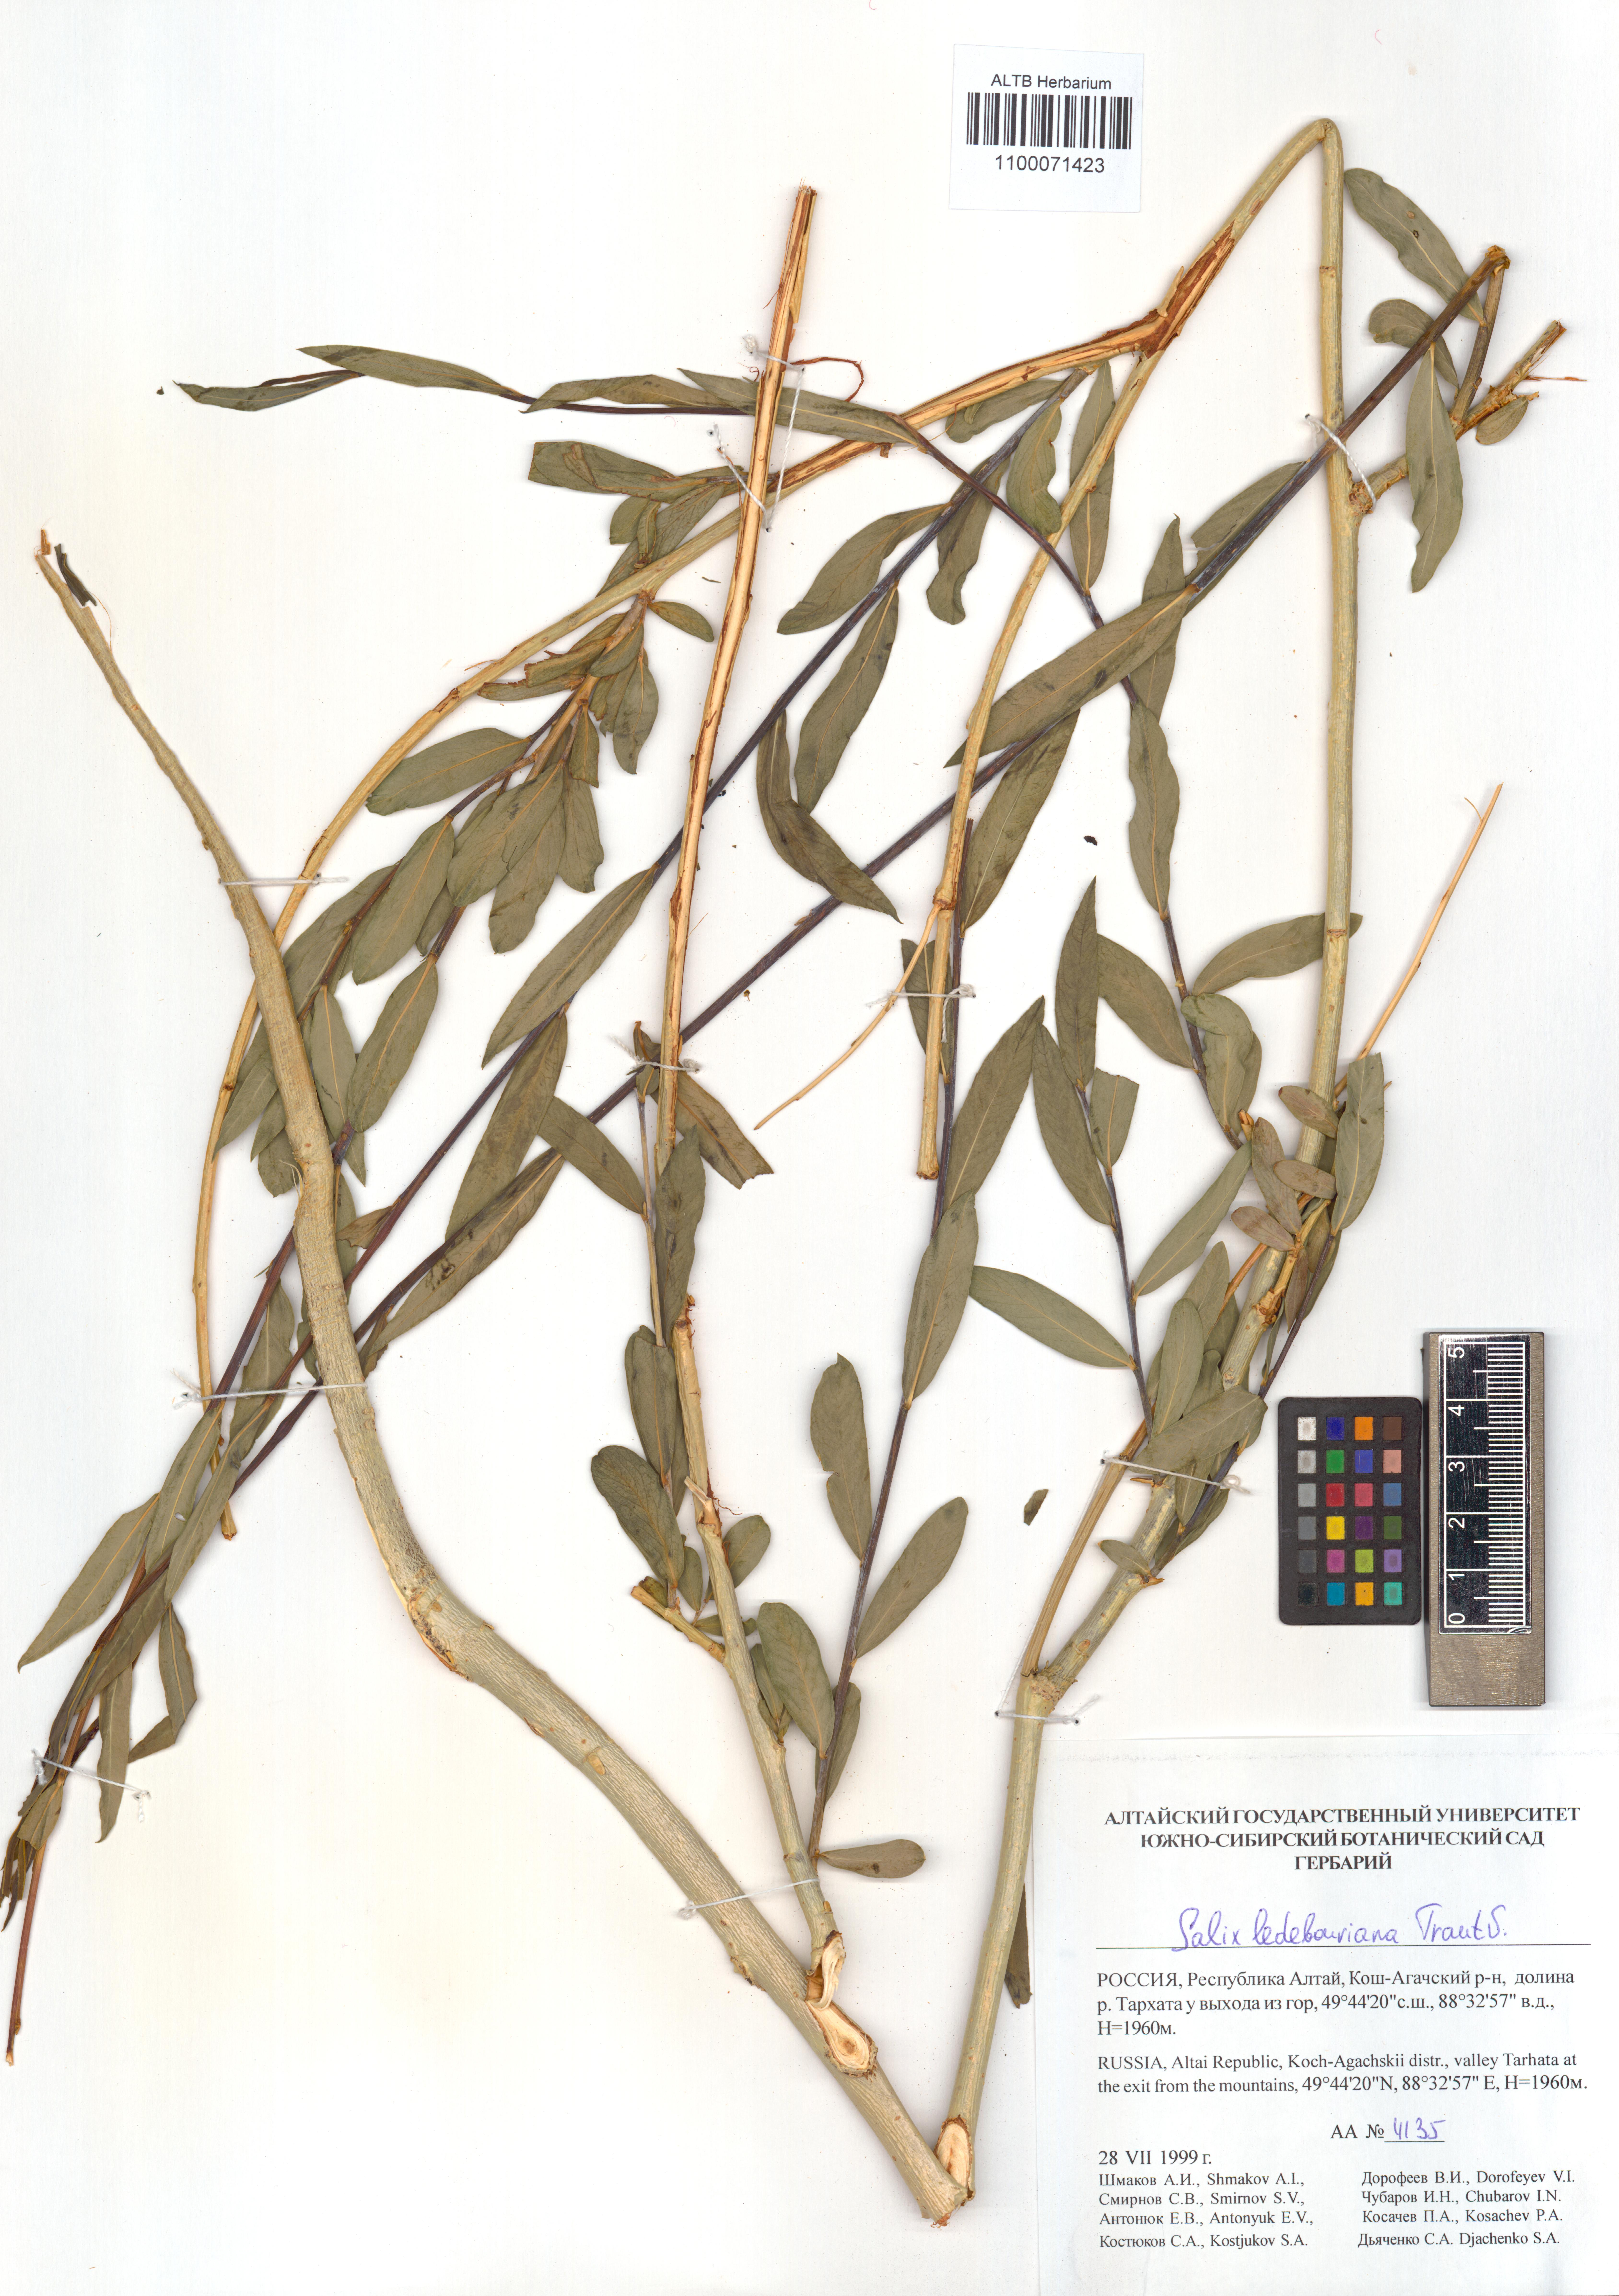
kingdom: Plantae
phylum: Tracheophyta
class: Magnoliopsida
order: Malpighiales
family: Salicaceae
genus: Salix
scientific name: Salix ledebouriana
